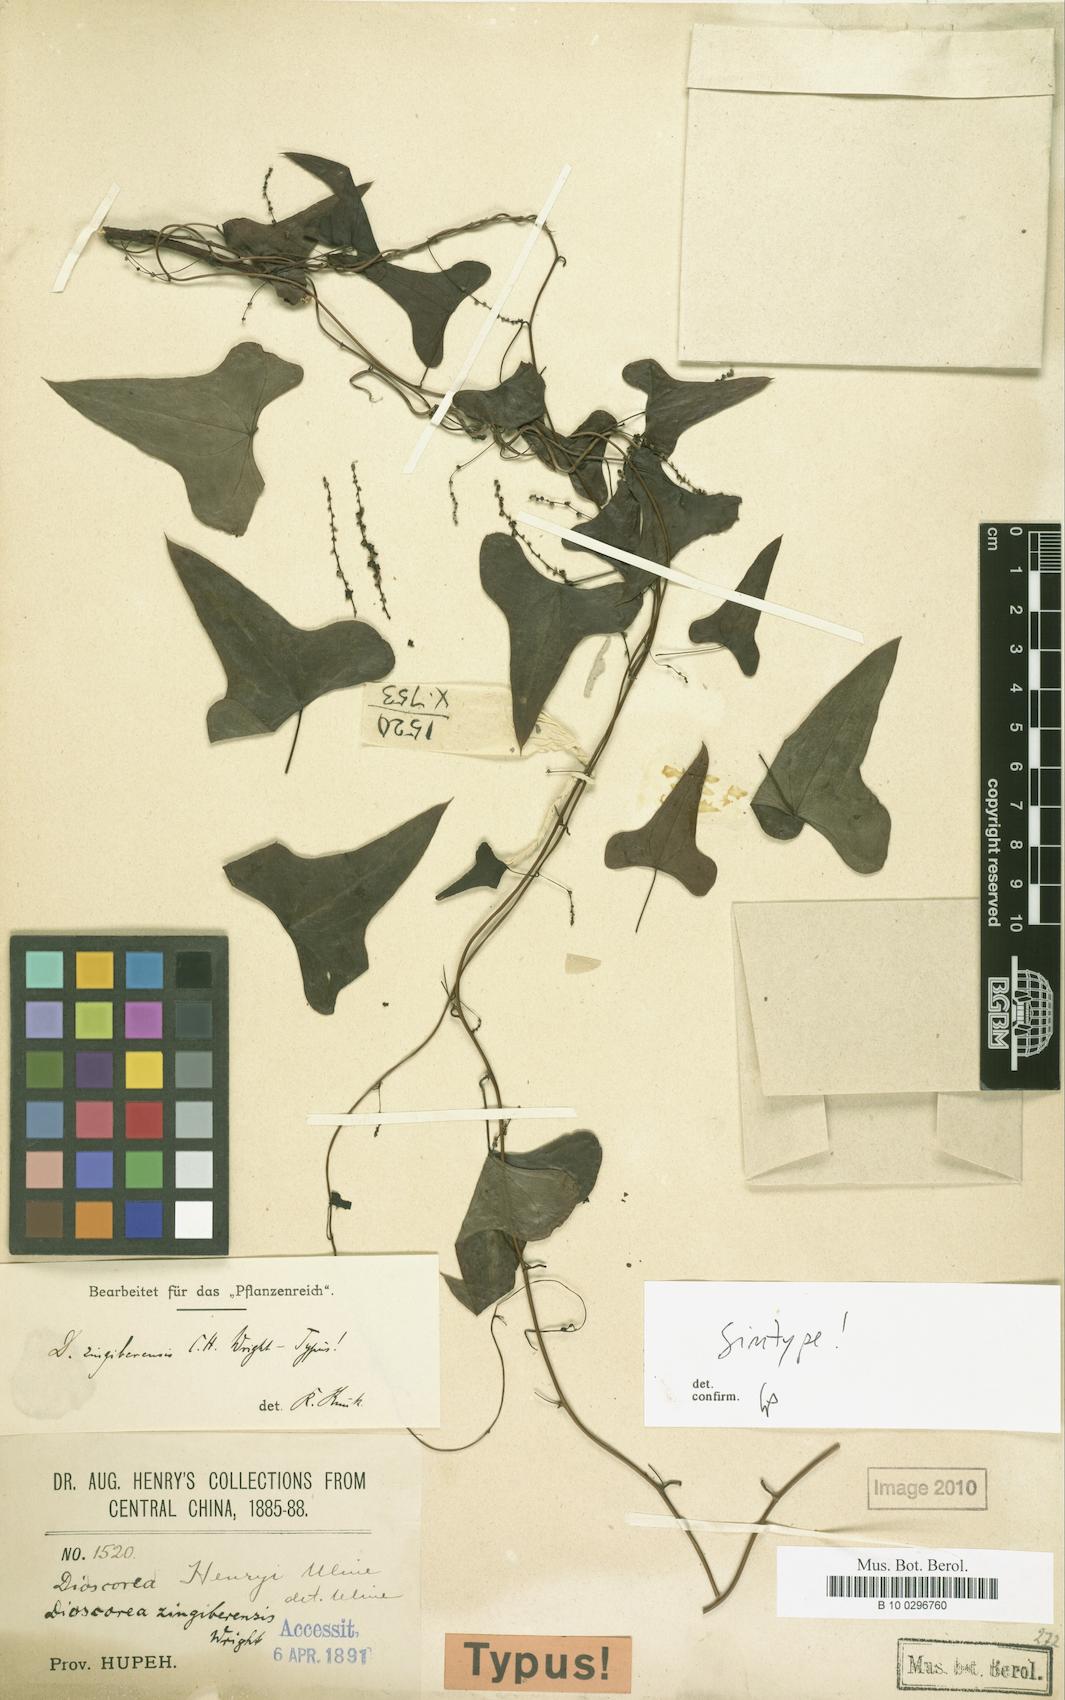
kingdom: Plantae
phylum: Tracheophyta
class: Liliopsida
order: Dioscoreales
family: Dioscoreaceae
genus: Dioscorea
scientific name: Dioscorea zingiberensis
